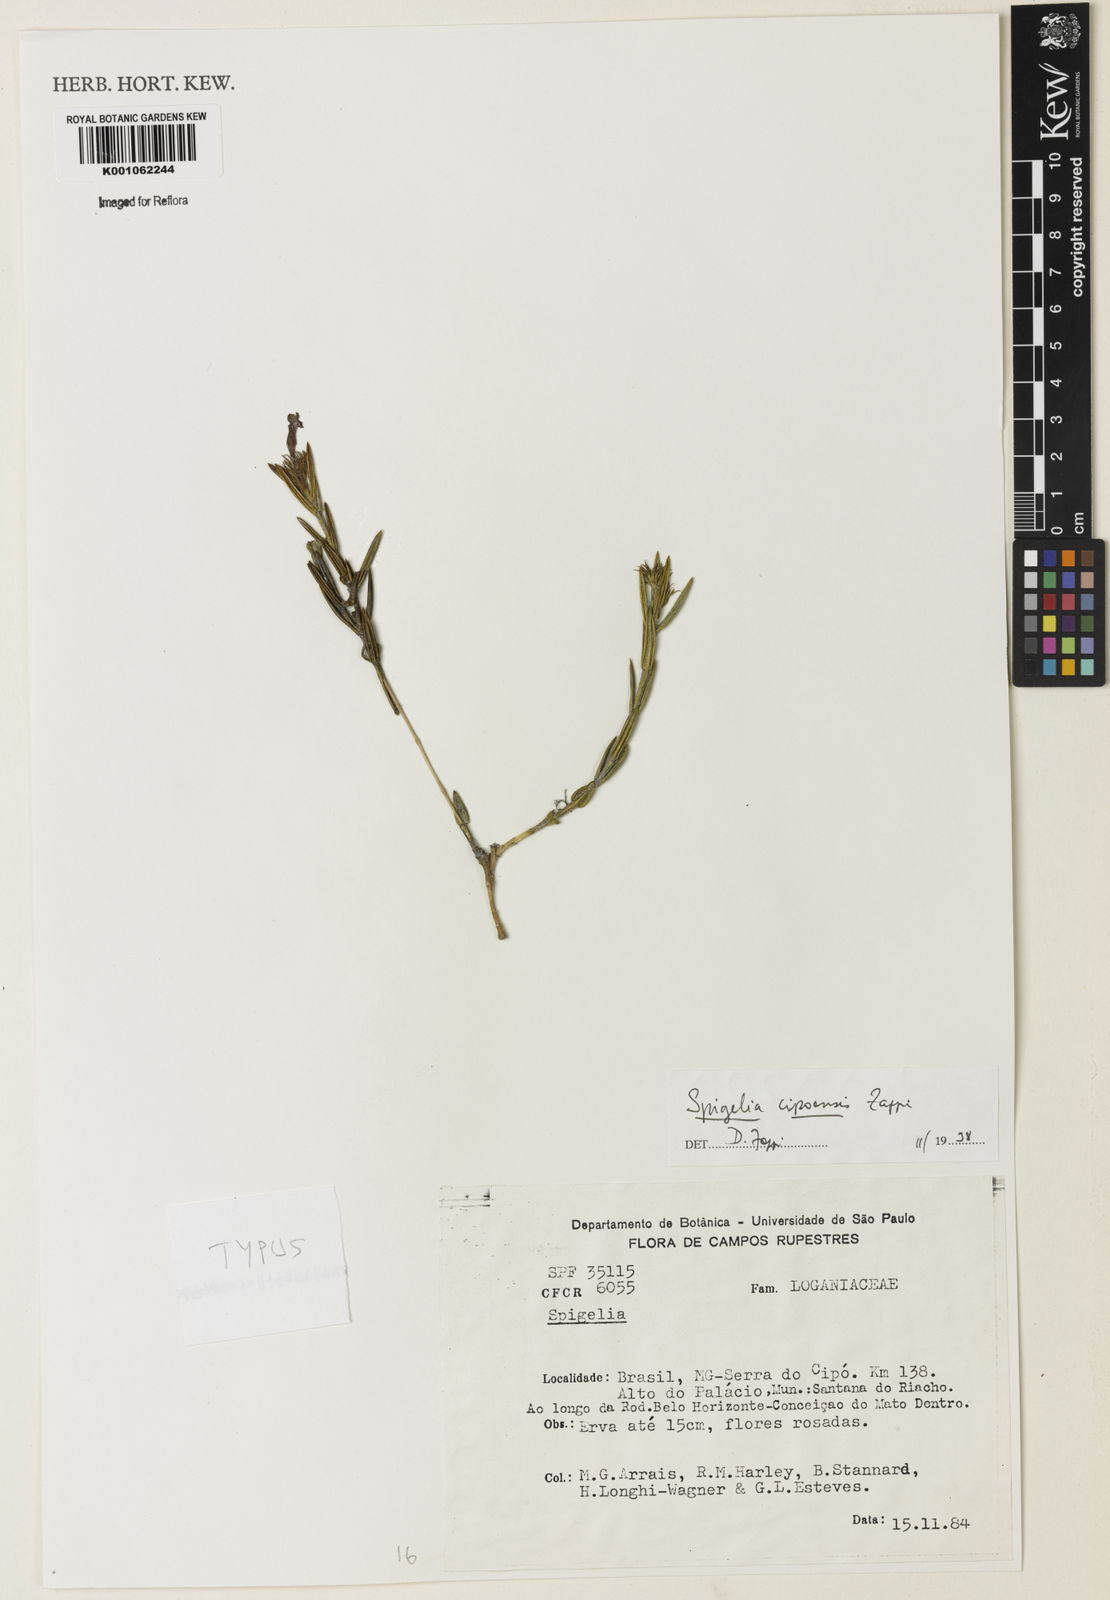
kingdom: Plantae
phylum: Tracheophyta
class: Magnoliopsida
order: Gentianales
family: Loganiaceae
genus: Spigelia
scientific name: Spigelia cipoensis
